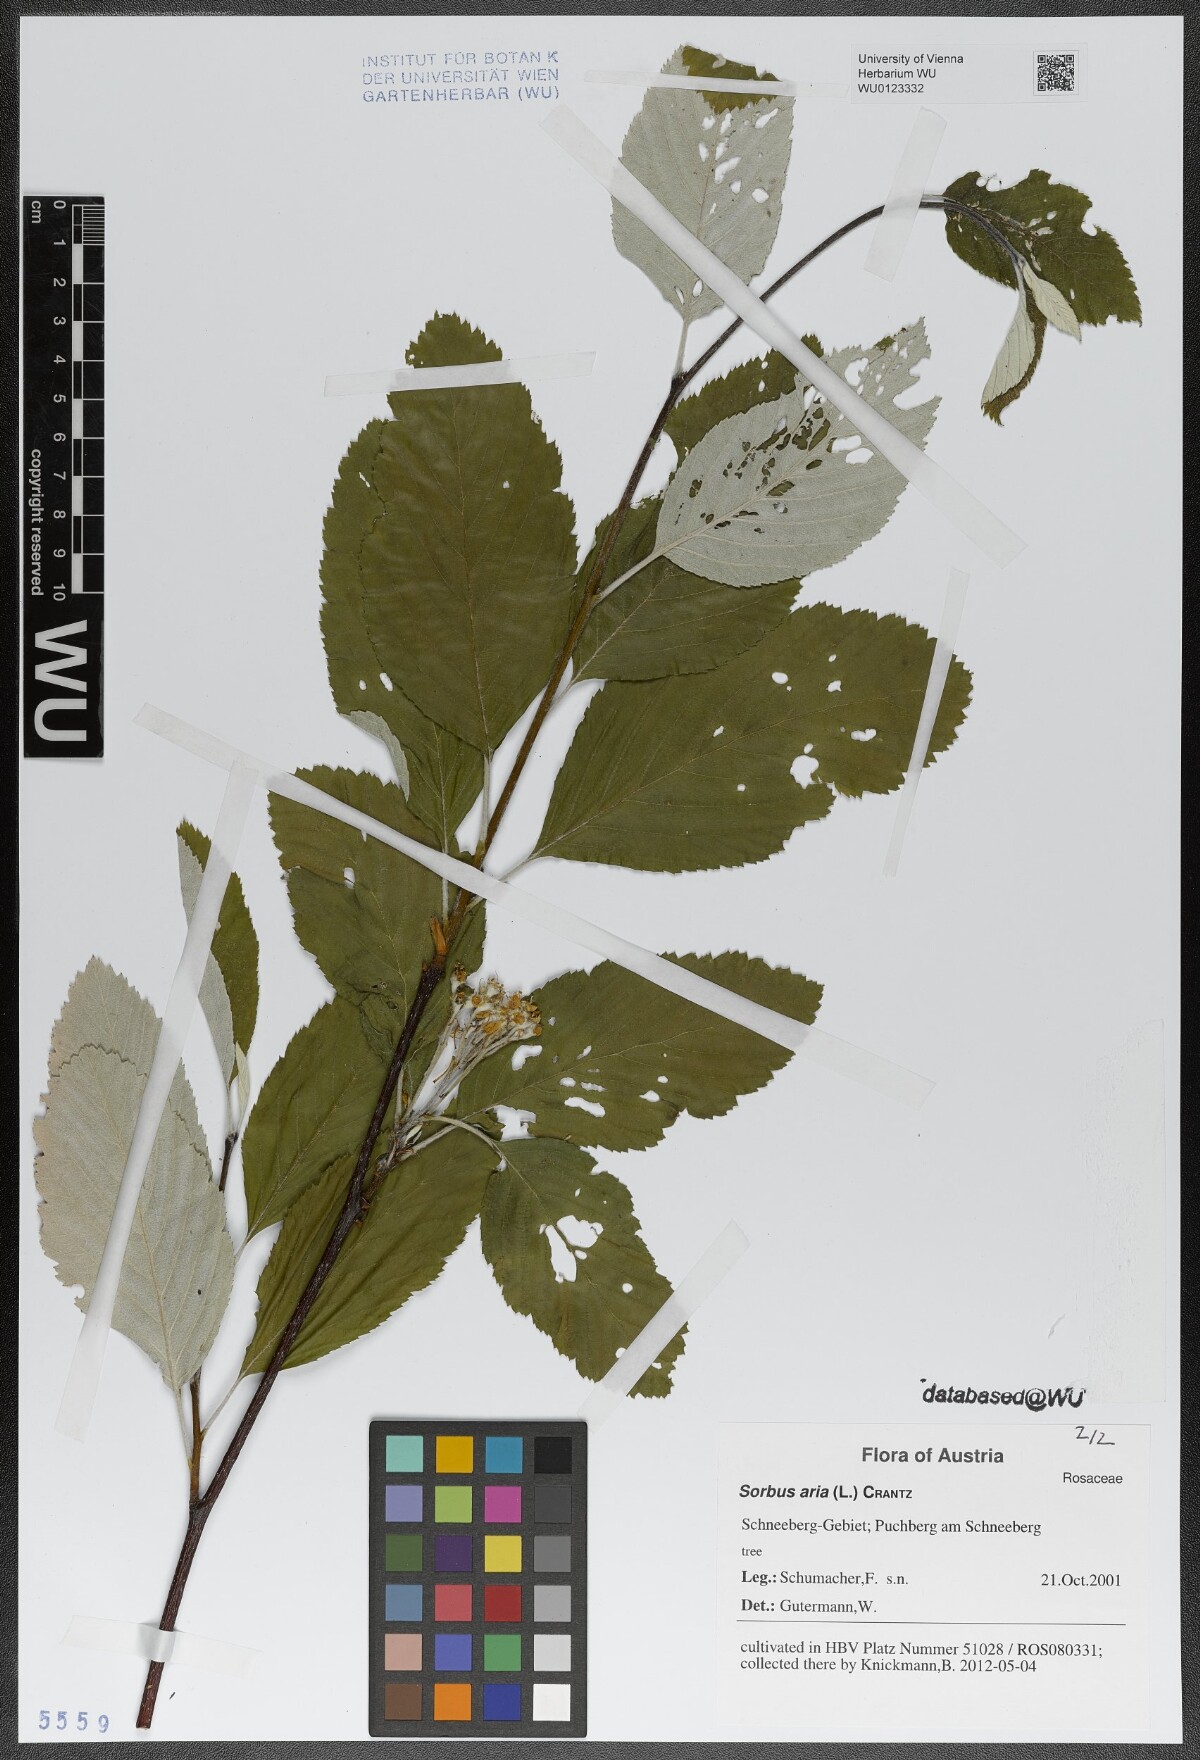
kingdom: Plantae
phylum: Tracheophyta
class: Magnoliopsida
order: Rosales
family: Rosaceae
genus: Aria
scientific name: Aria edulis
